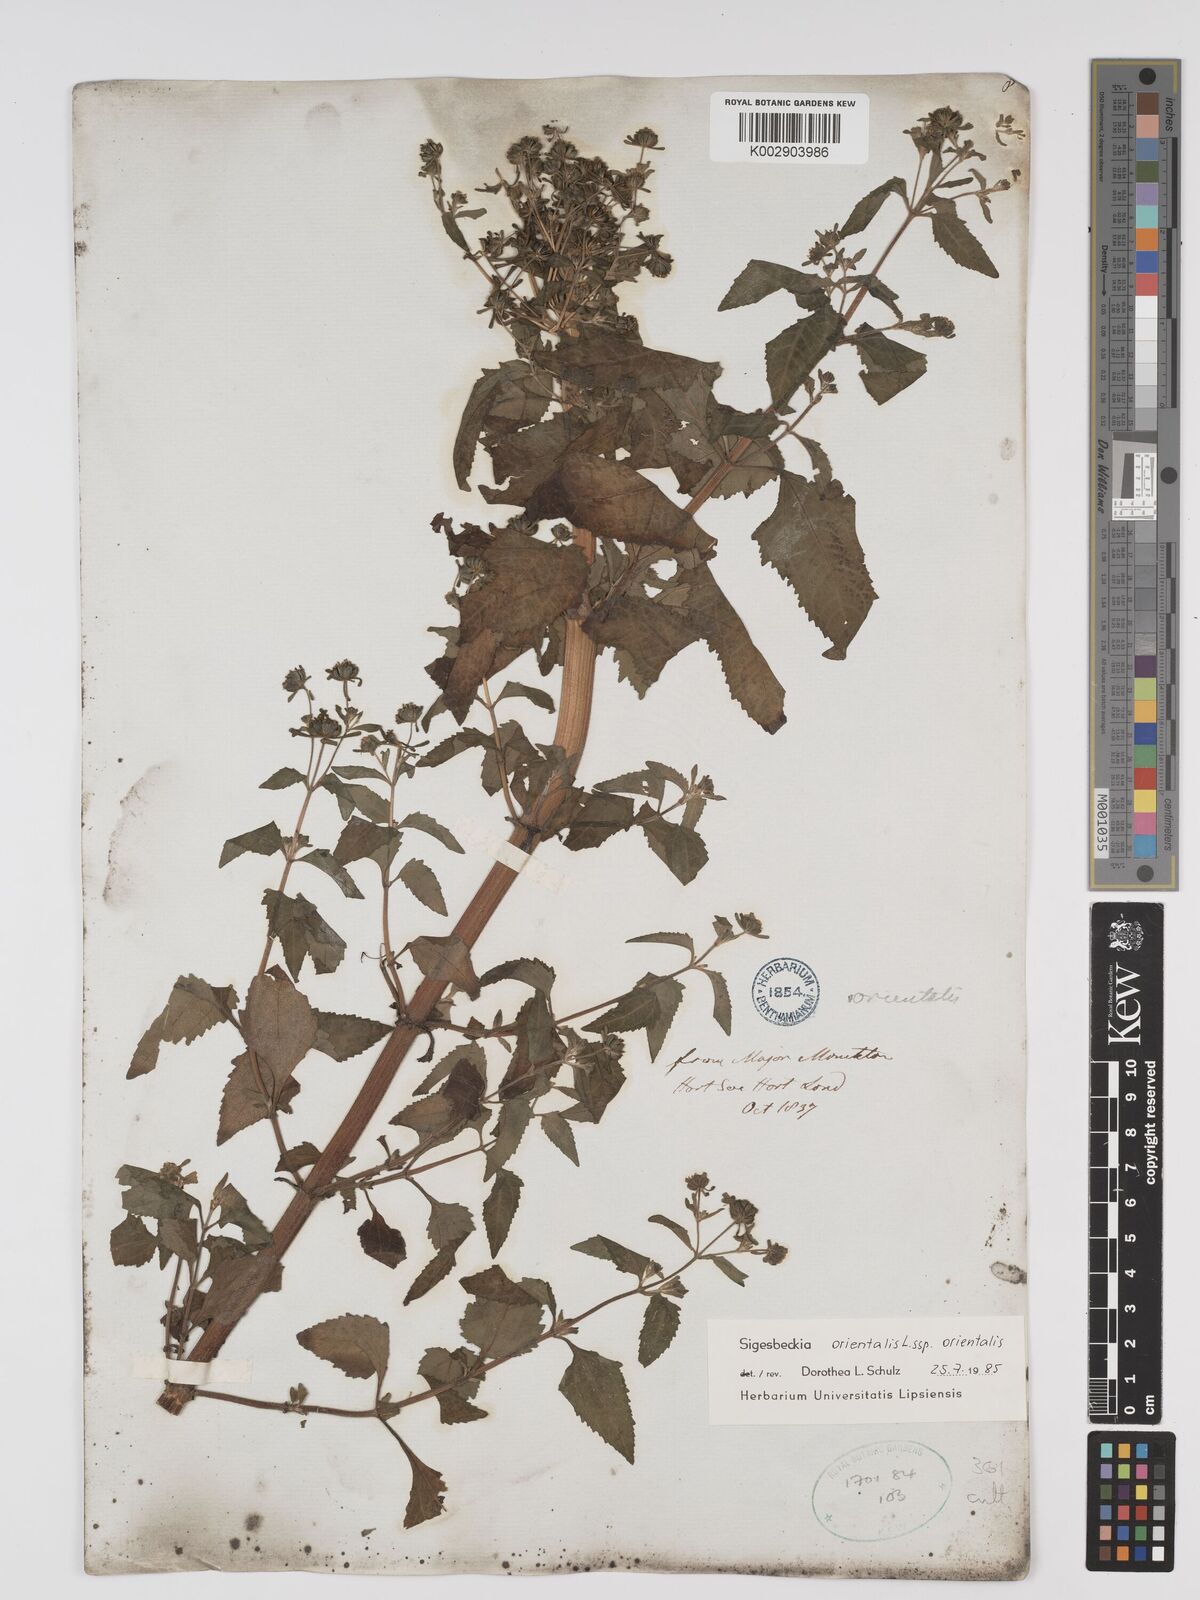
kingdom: Plantae
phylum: Tracheophyta
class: Magnoliopsida
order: Asterales
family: Asteraceae
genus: Sigesbeckia
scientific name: Sigesbeckia orientalis
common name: Eastern st paul's-wort
